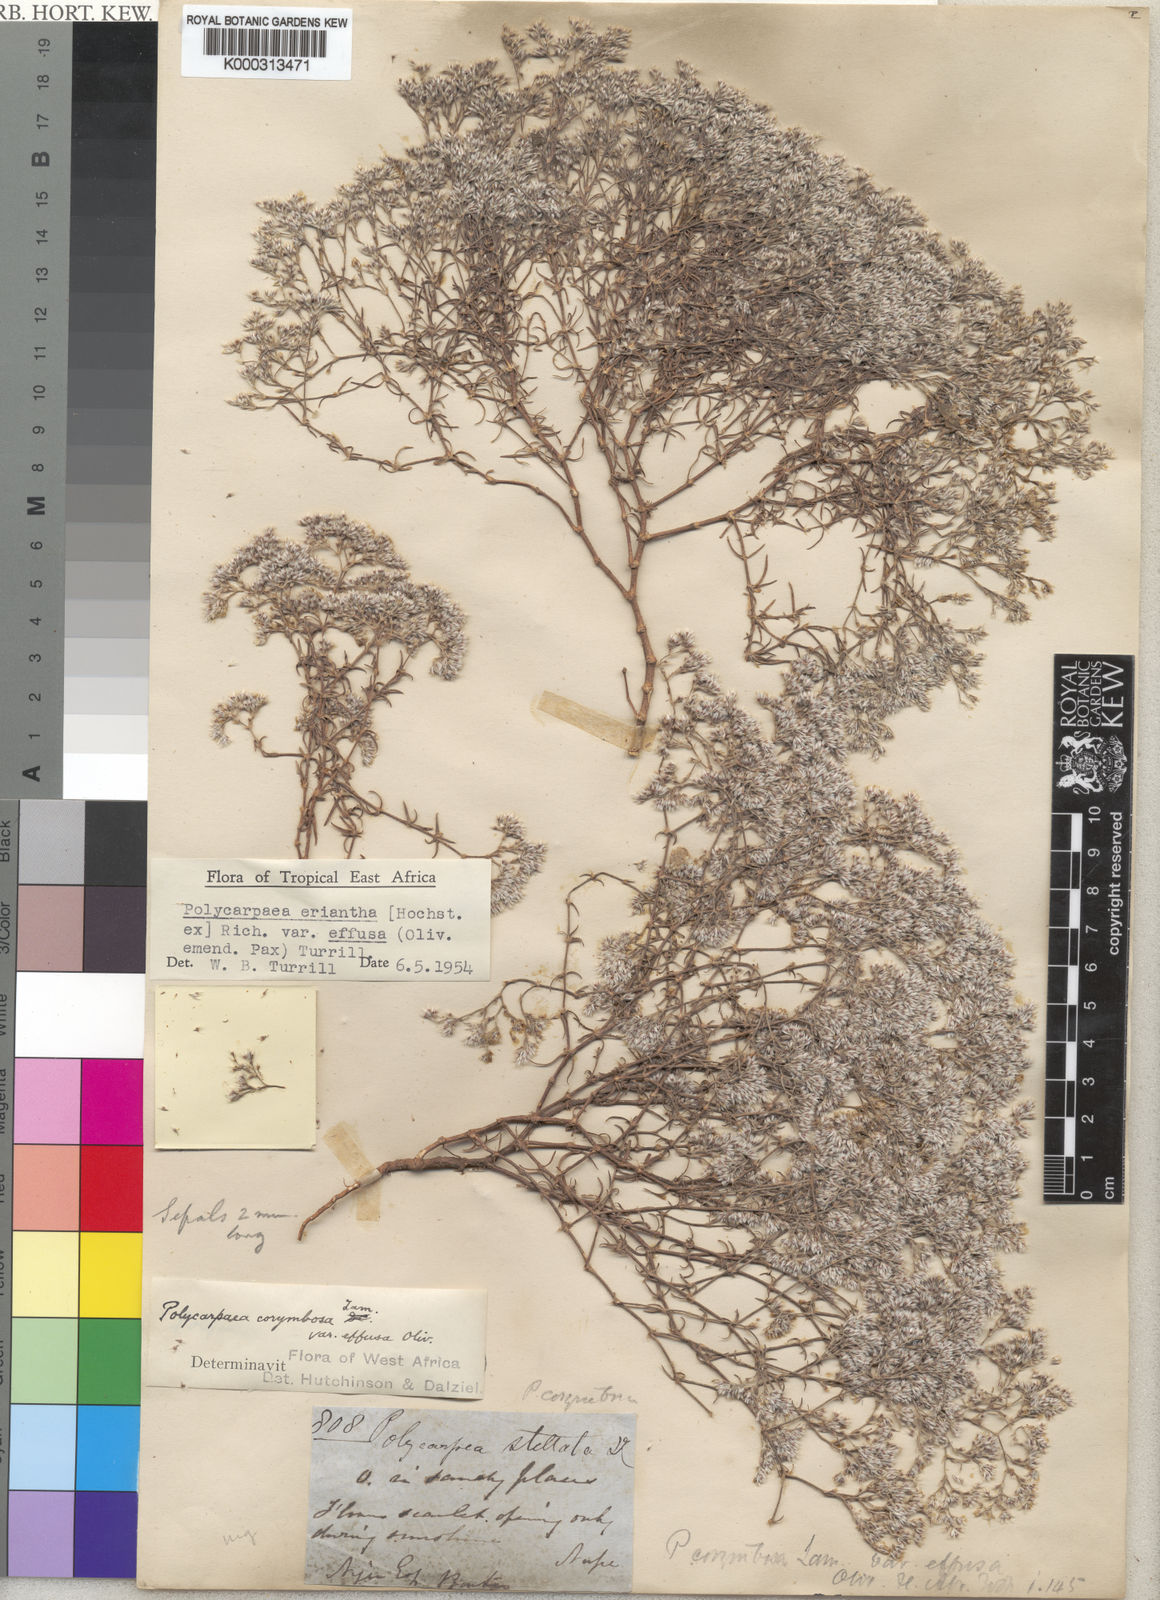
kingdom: Plantae
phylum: Tracheophyta
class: Magnoliopsida
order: Caryophyllales
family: Caryophyllaceae
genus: Polycarpaea
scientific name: Polycarpaea stellata
